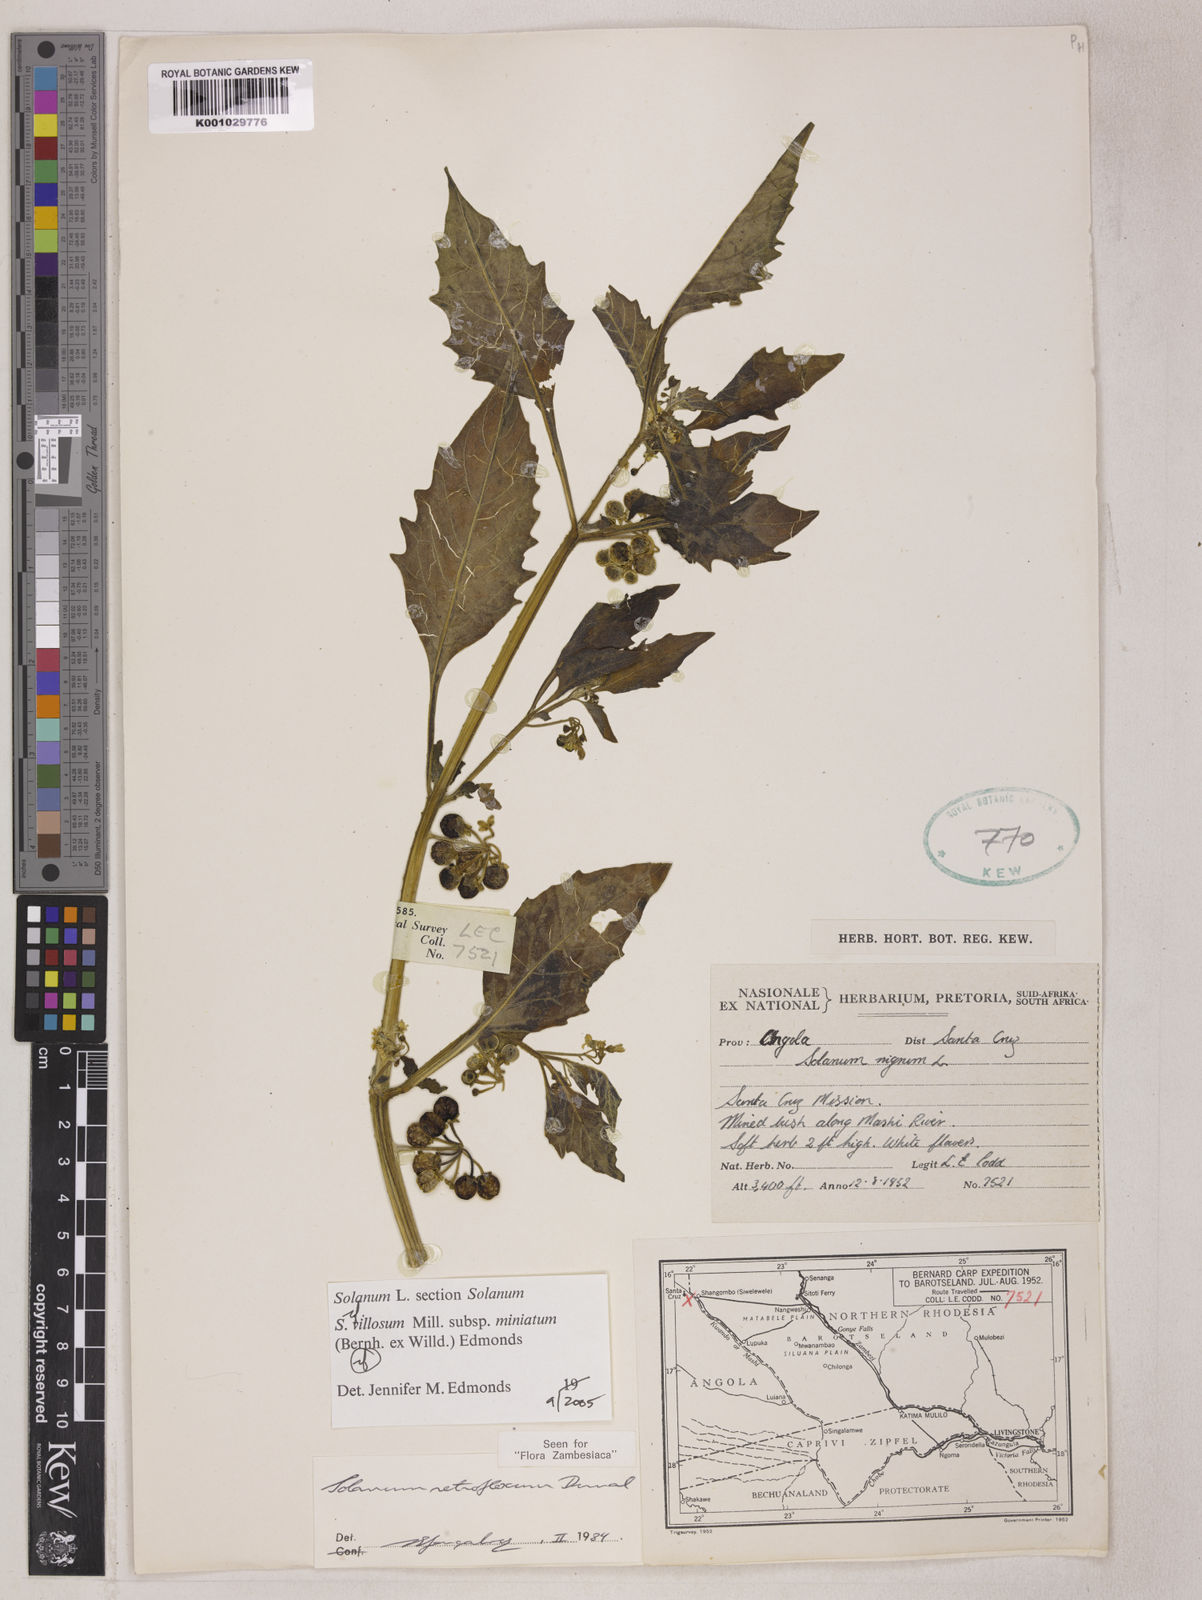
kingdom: Plantae
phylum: Tracheophyta
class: Magnoliopsida
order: Solanales
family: Solanaceae
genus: Solanum
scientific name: Solanum villosum
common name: Red nightshade
